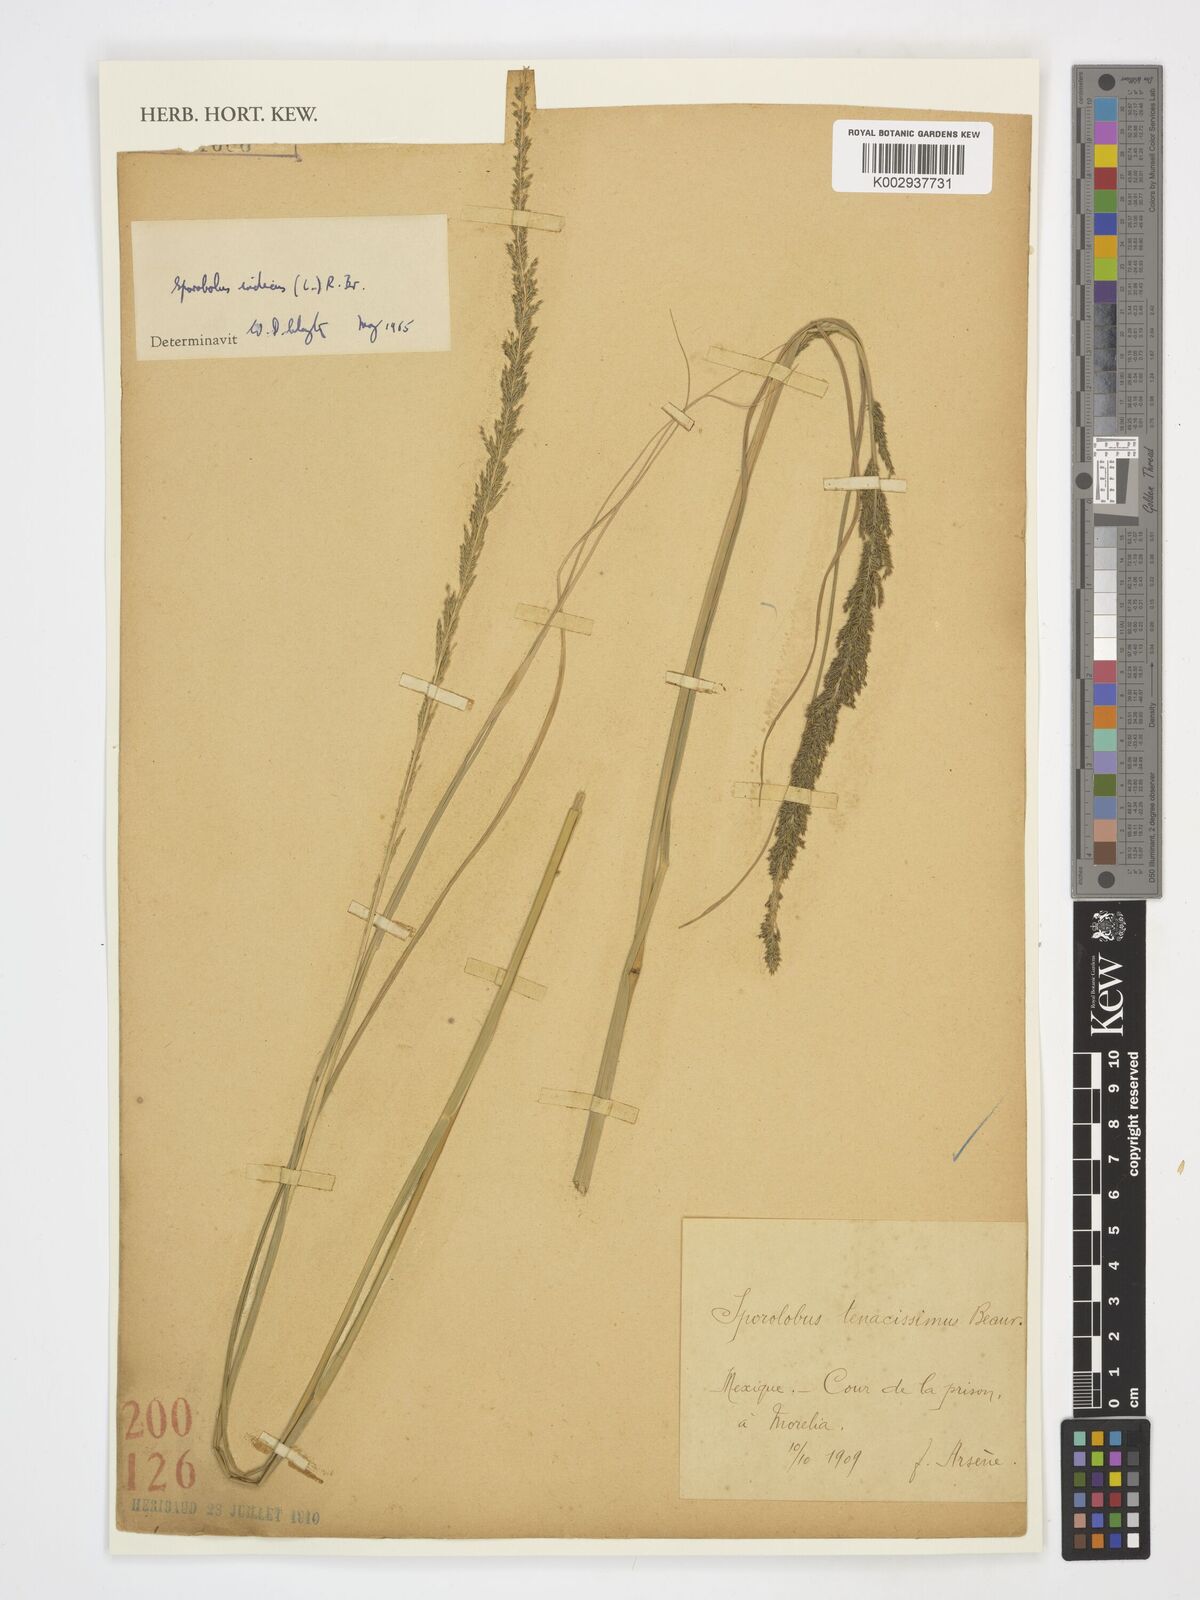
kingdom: Plantae
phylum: Tracheophyta
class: Liliopsida
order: Poales
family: Poaceae
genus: Sporobolus
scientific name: Sporobolus indicus
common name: Smut grass
